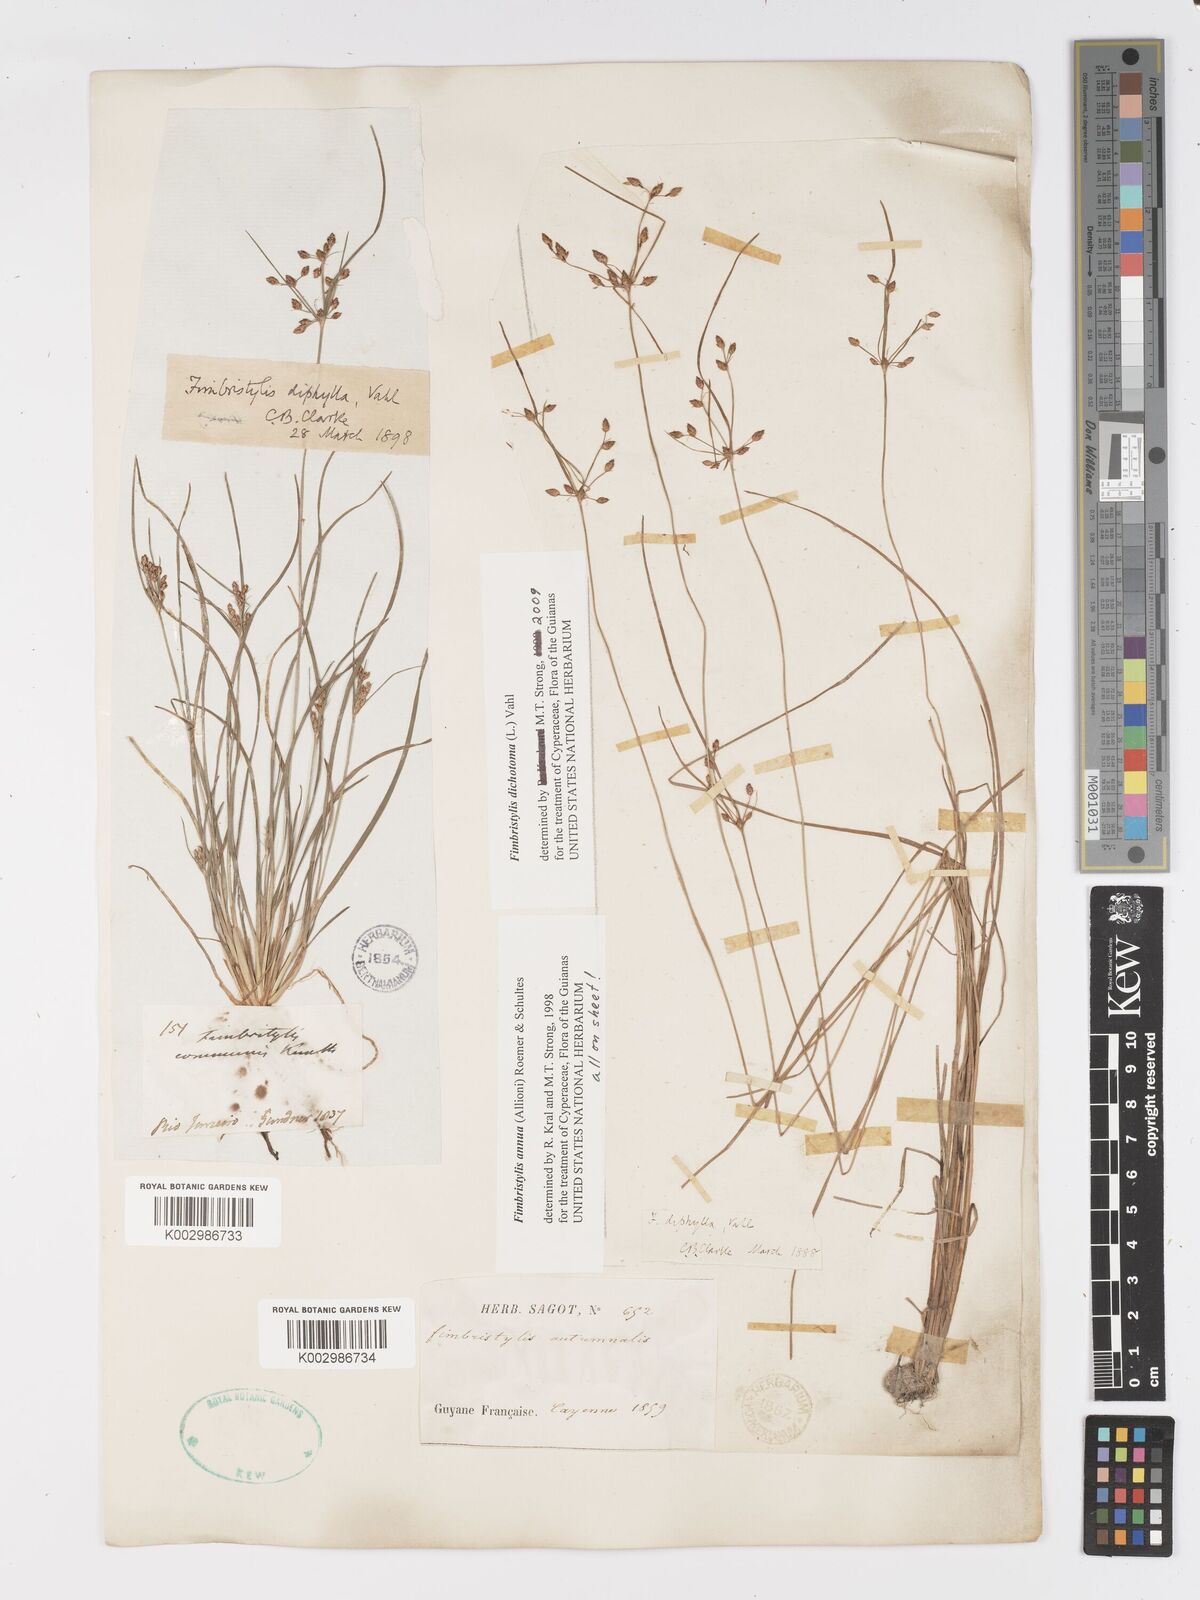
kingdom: Plantae
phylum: Tracheophyta
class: Liliopsida
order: Poales
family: Cyperaceae
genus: Fimbristylis
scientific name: Fimbristylis dichotoma
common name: Forked fimbry
